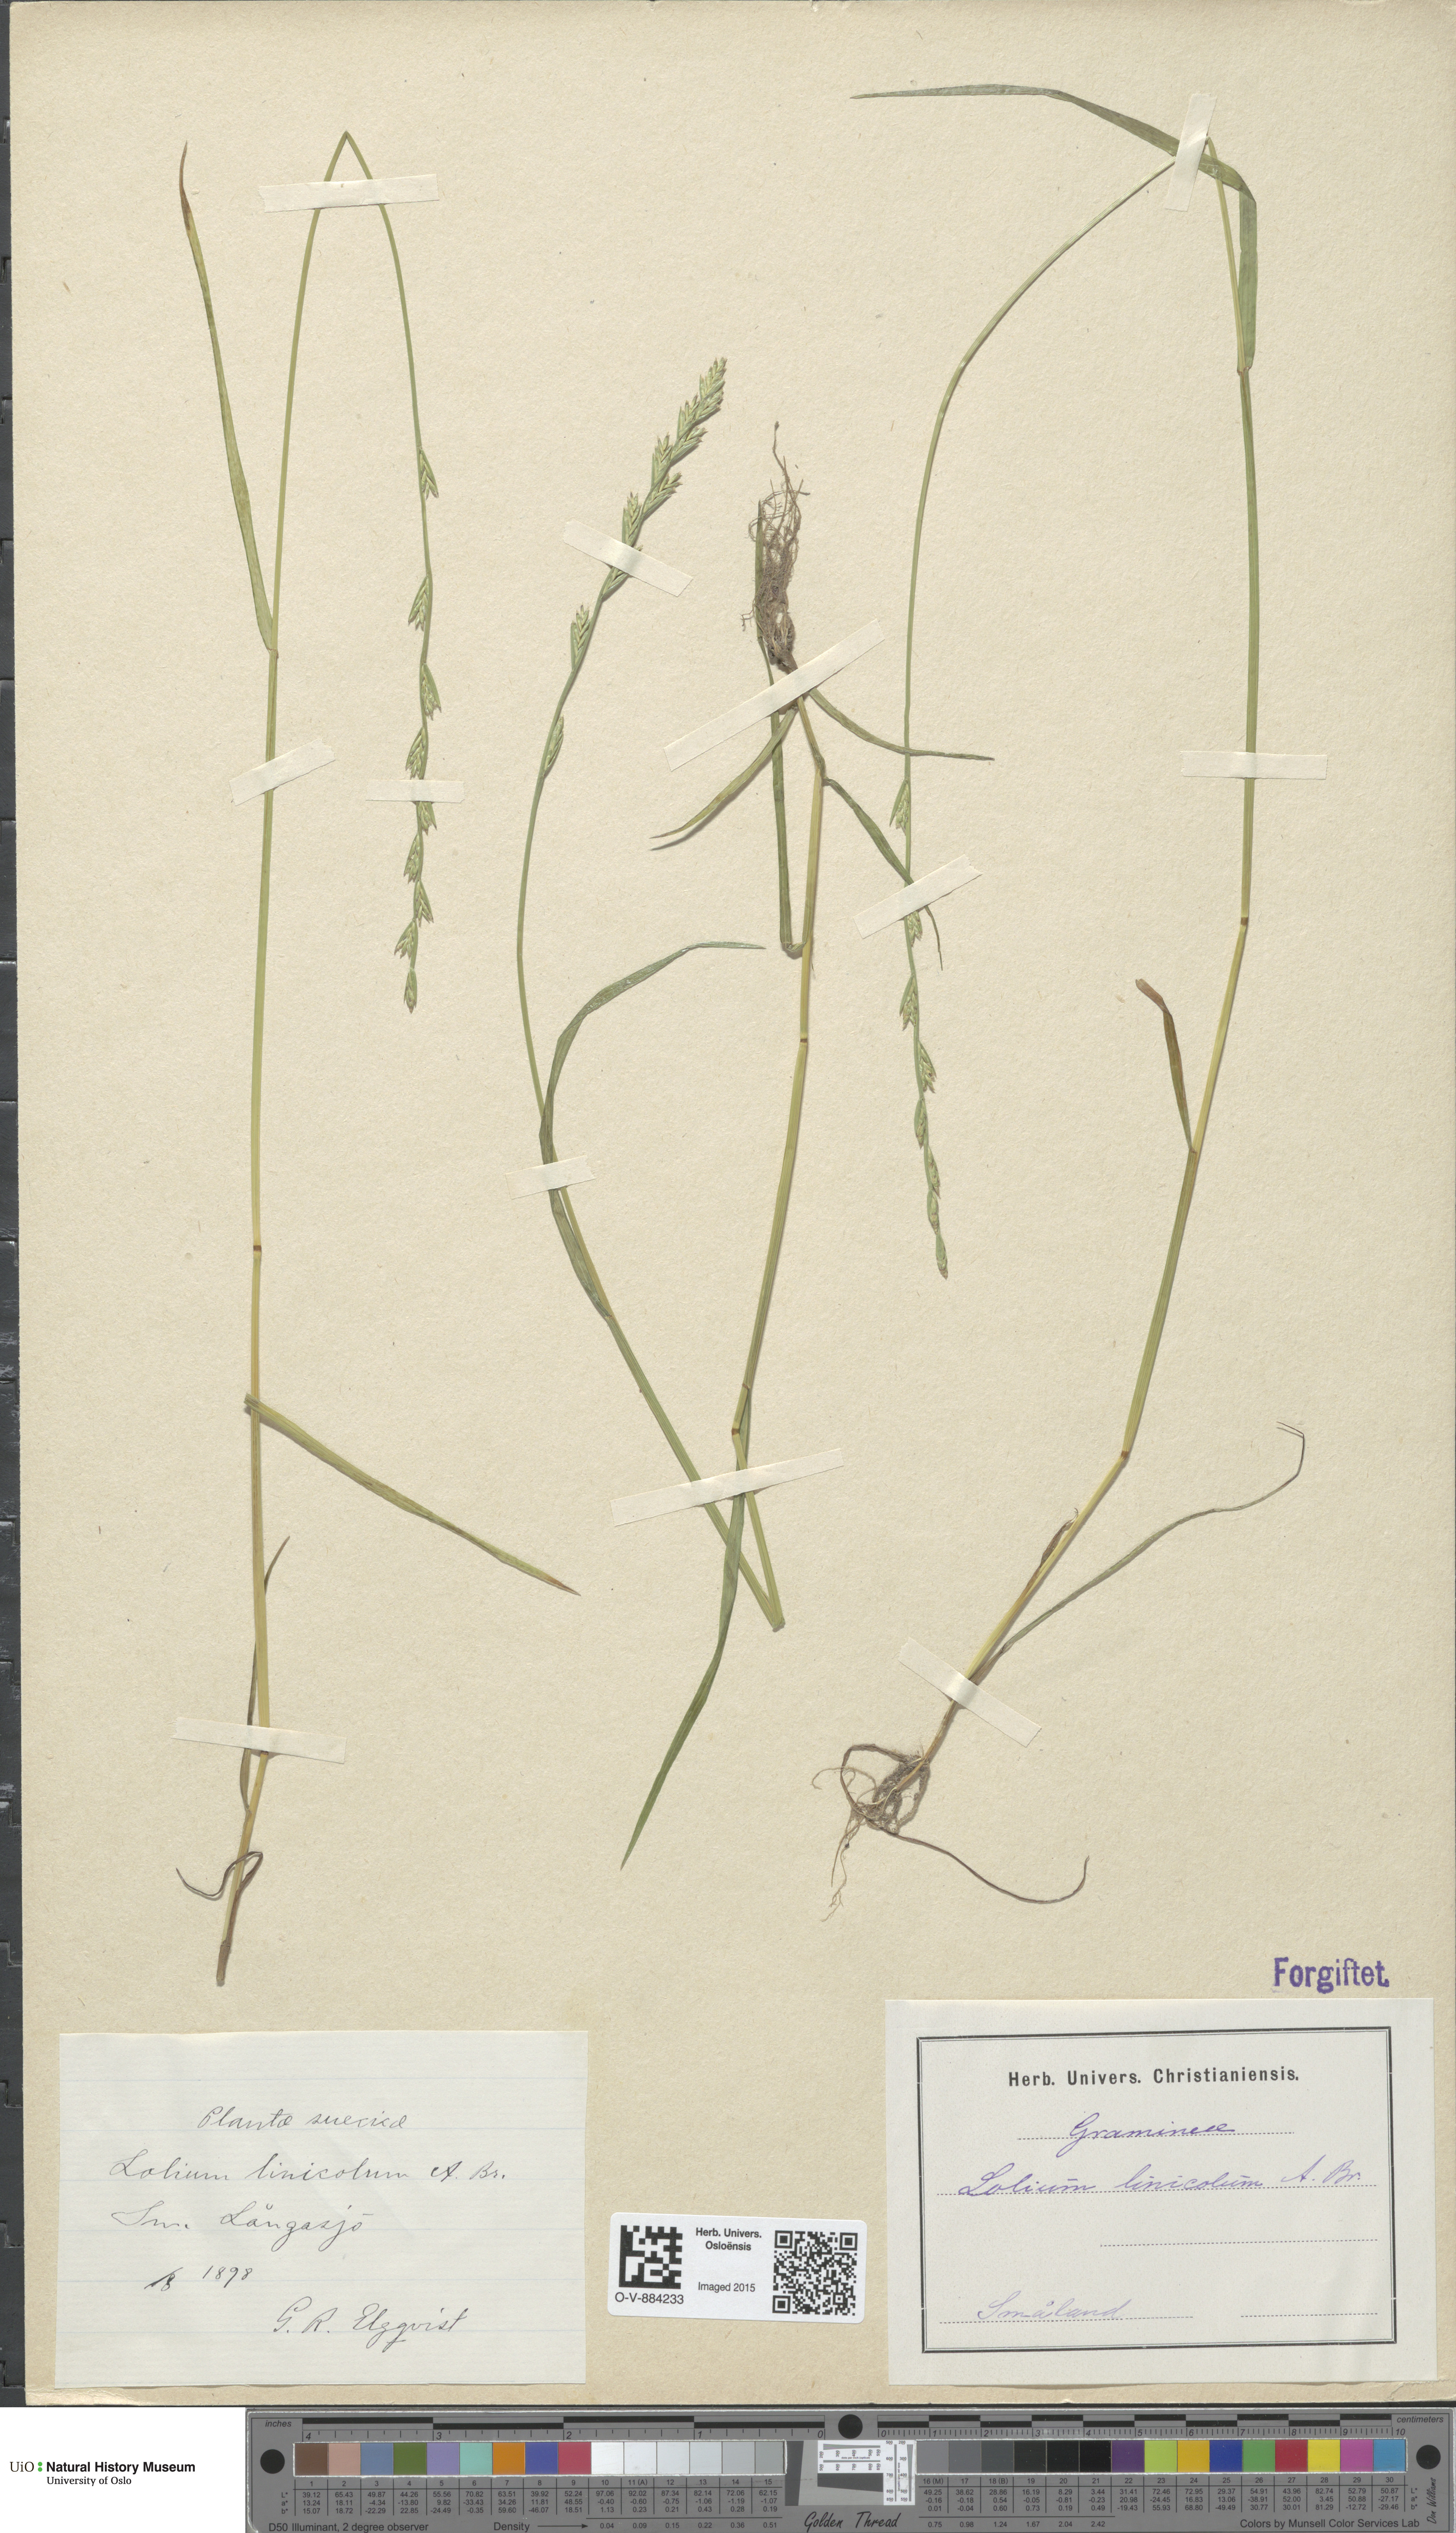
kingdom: Plantae
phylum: Tracheophyta
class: Liliopsida
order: Poales
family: Poaceae
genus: Lolium
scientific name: Lolium remotum
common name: Flaxfield rye-grass
